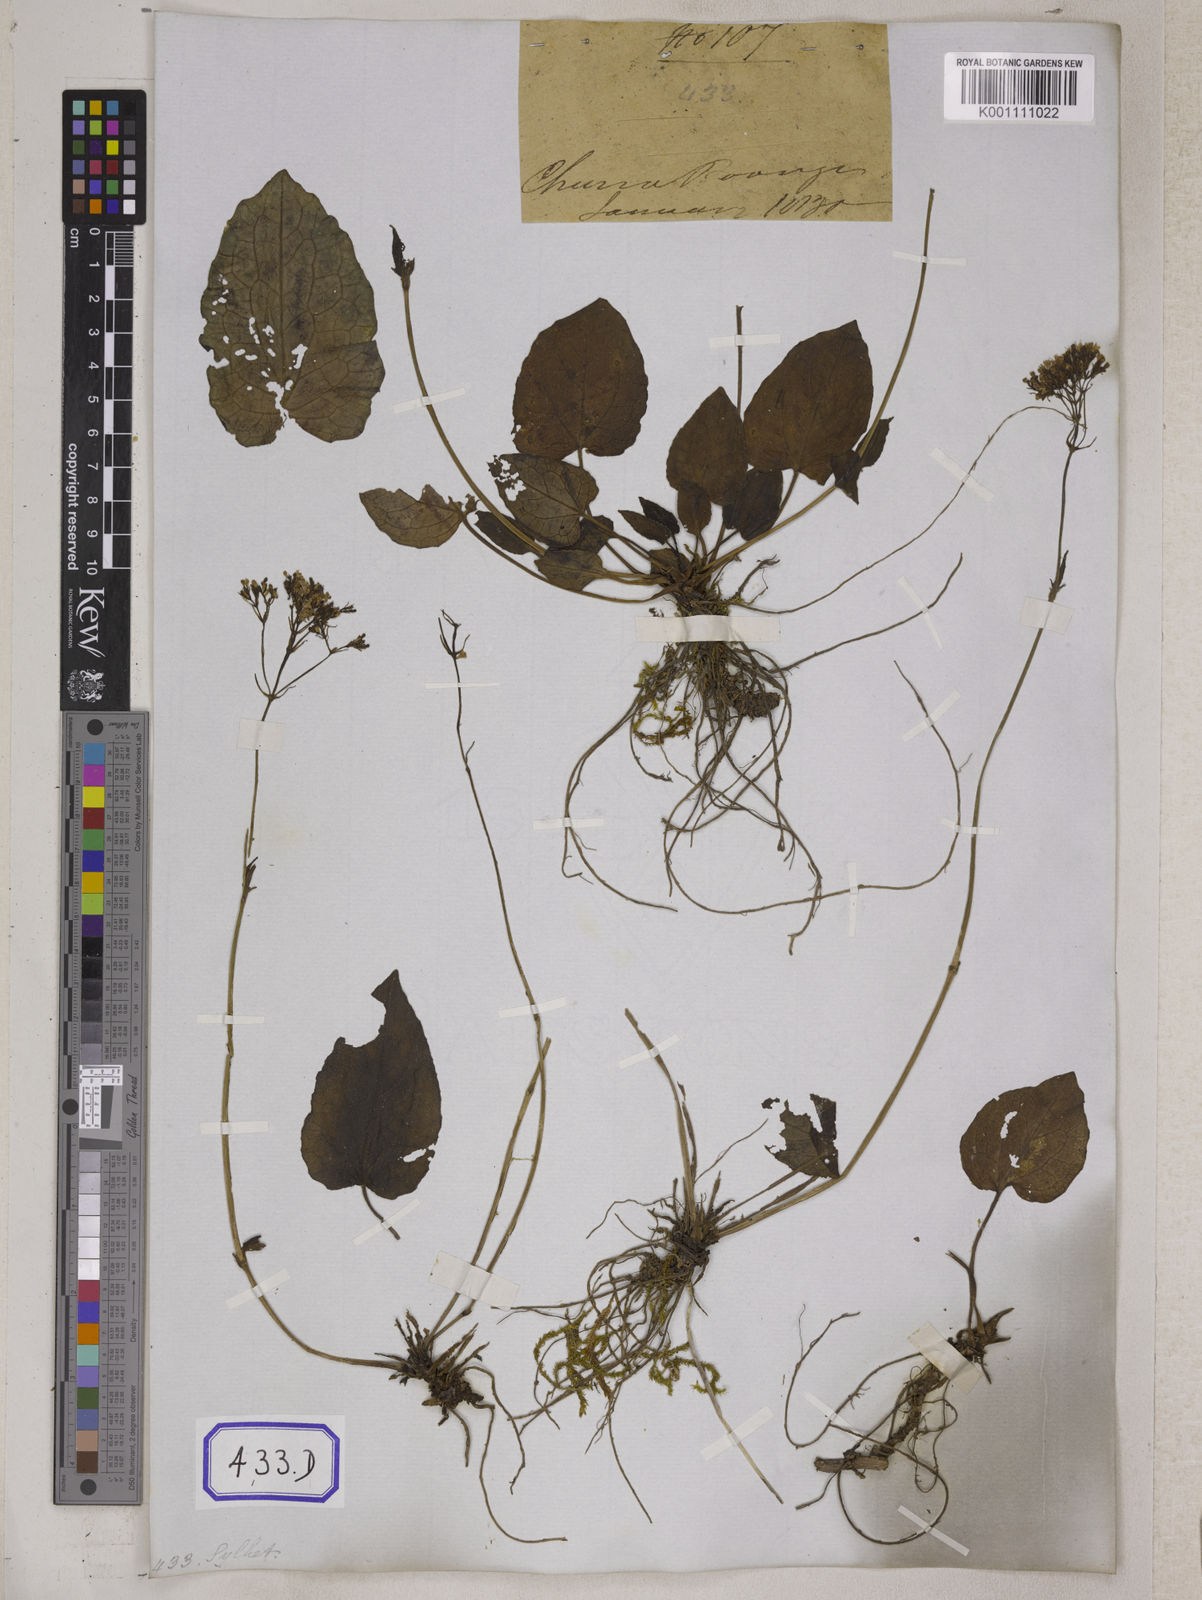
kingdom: Plantae
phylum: Tracheophyta
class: Magnoliopsida
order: Dipsacales
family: Caprifoliaceae
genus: Valeriana
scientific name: Valeriana
